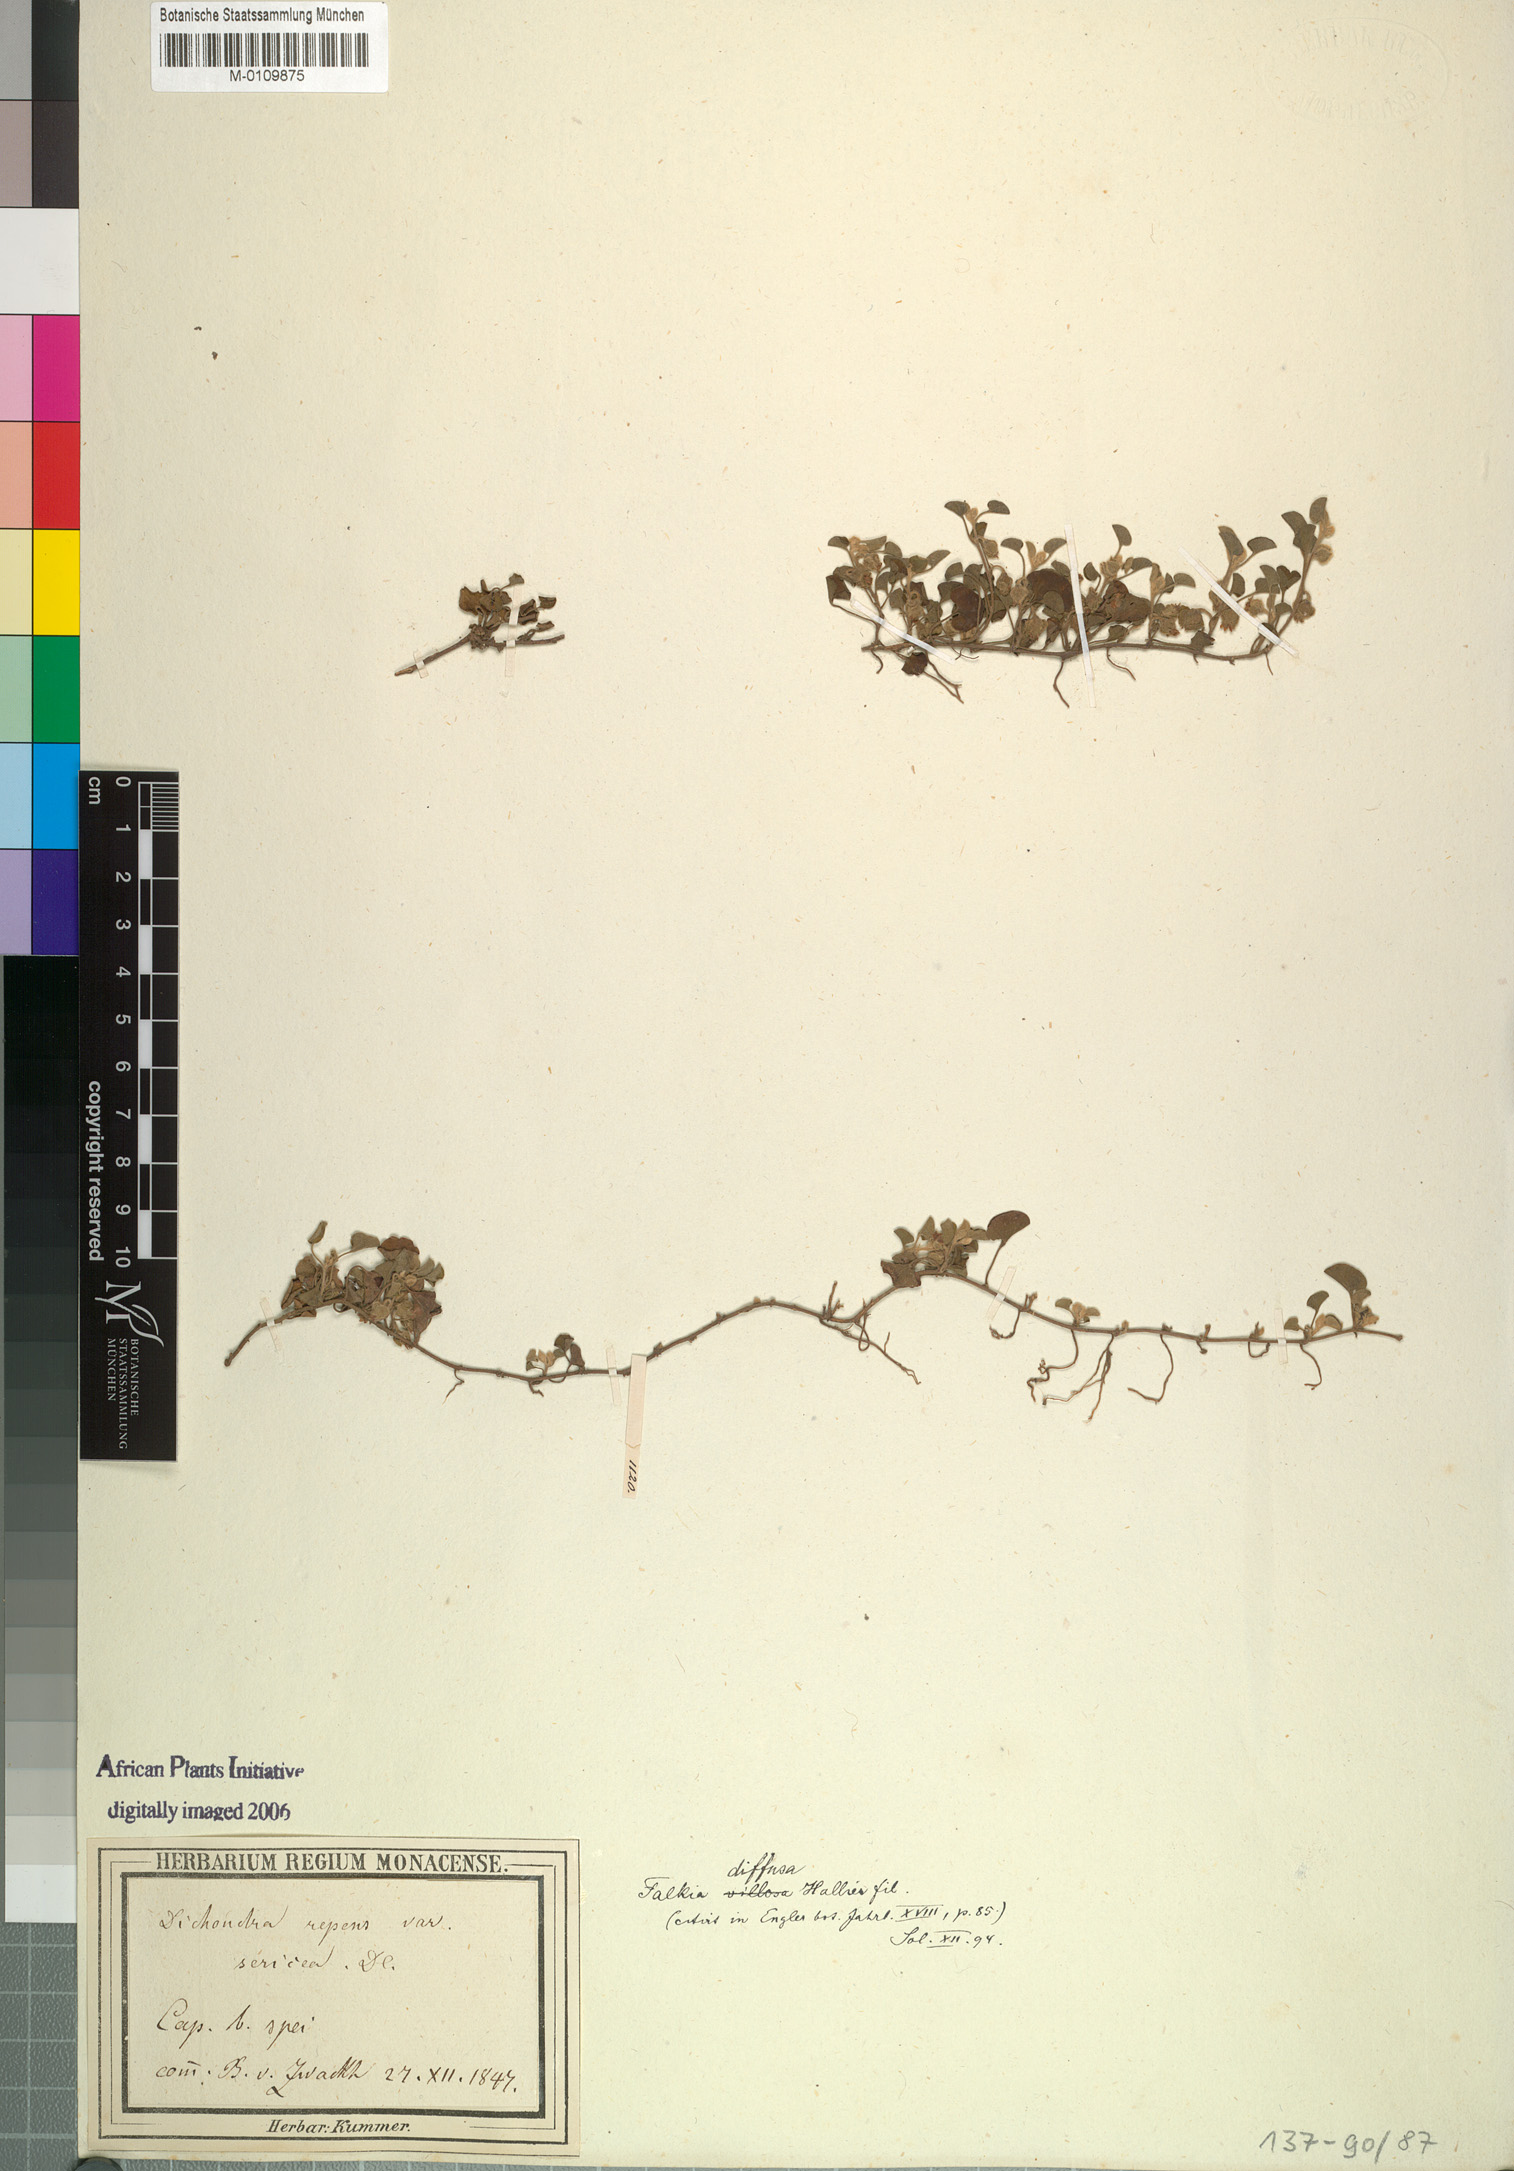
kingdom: Plantae
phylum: Tracheophyta
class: Magnoliopsida
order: Solanales
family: Convolvulaceae
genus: Falkia
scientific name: Falkia repens
